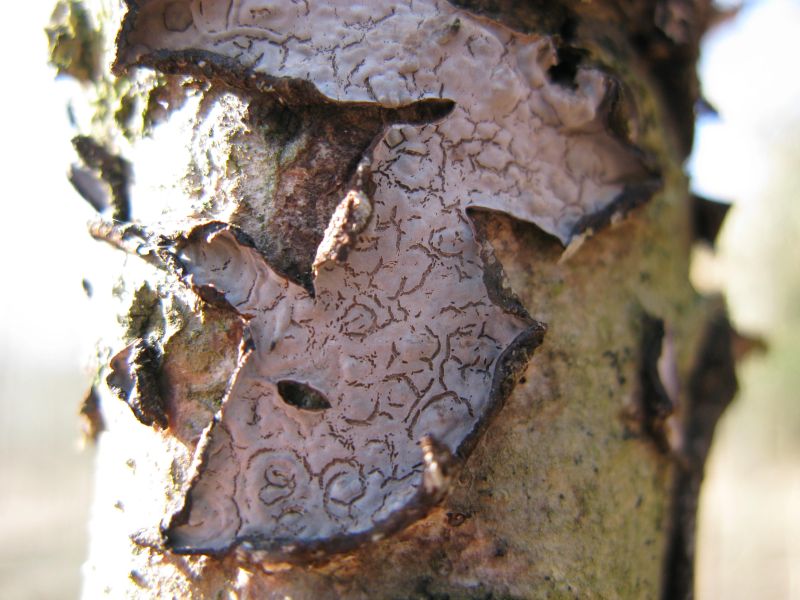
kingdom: Fungi
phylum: Basidiomycota
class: Agaricomycetes
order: Russulales
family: Peniophoraceae
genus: Peniophora
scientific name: Peniophora quercina
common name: ege-voksskind
